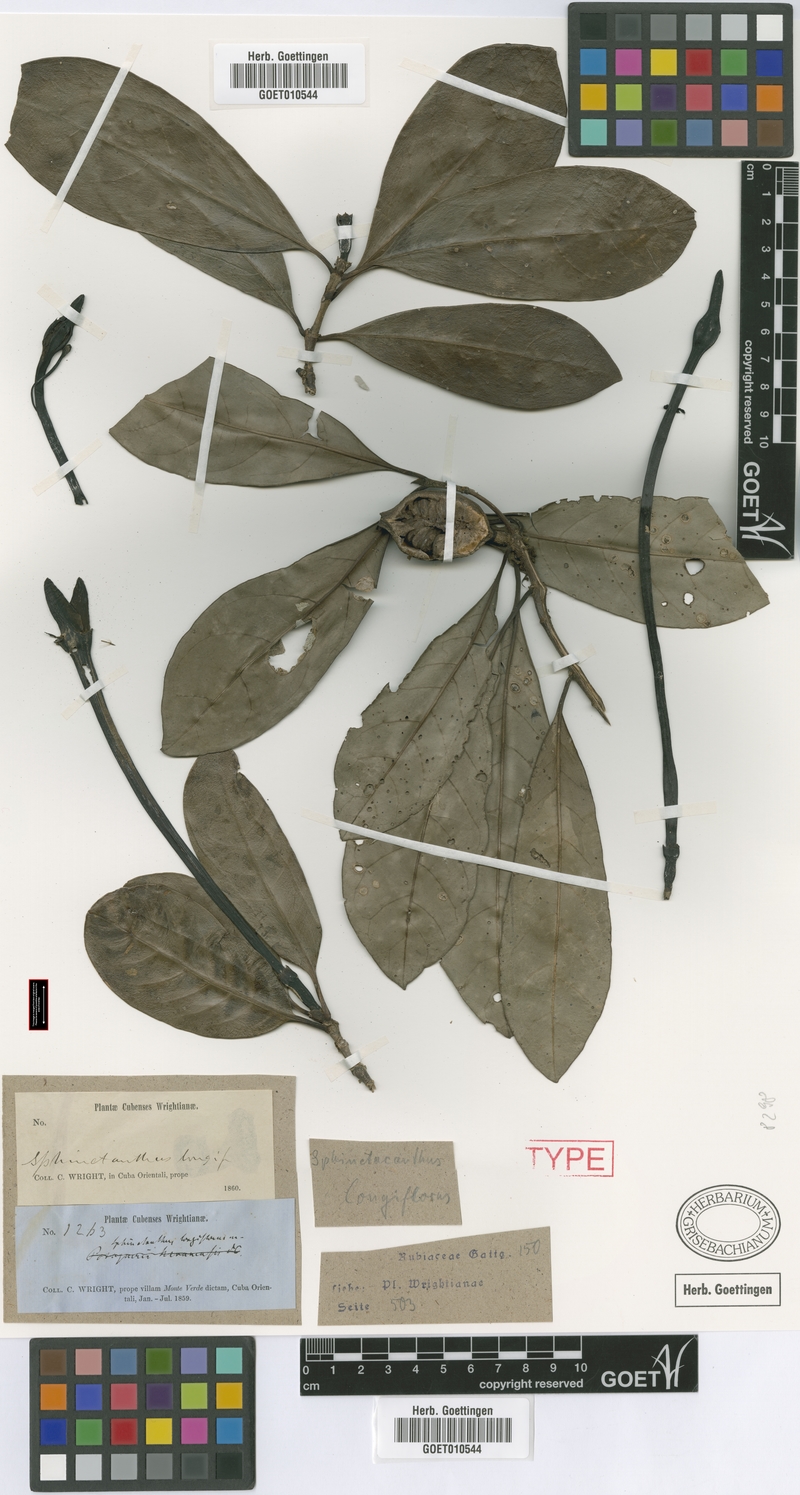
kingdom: Plantae
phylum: Tracheophyta
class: Magnoliopsida
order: Gentianales
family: Rubiaceae
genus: Tocoyena
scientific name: Tocoyena cubensis
